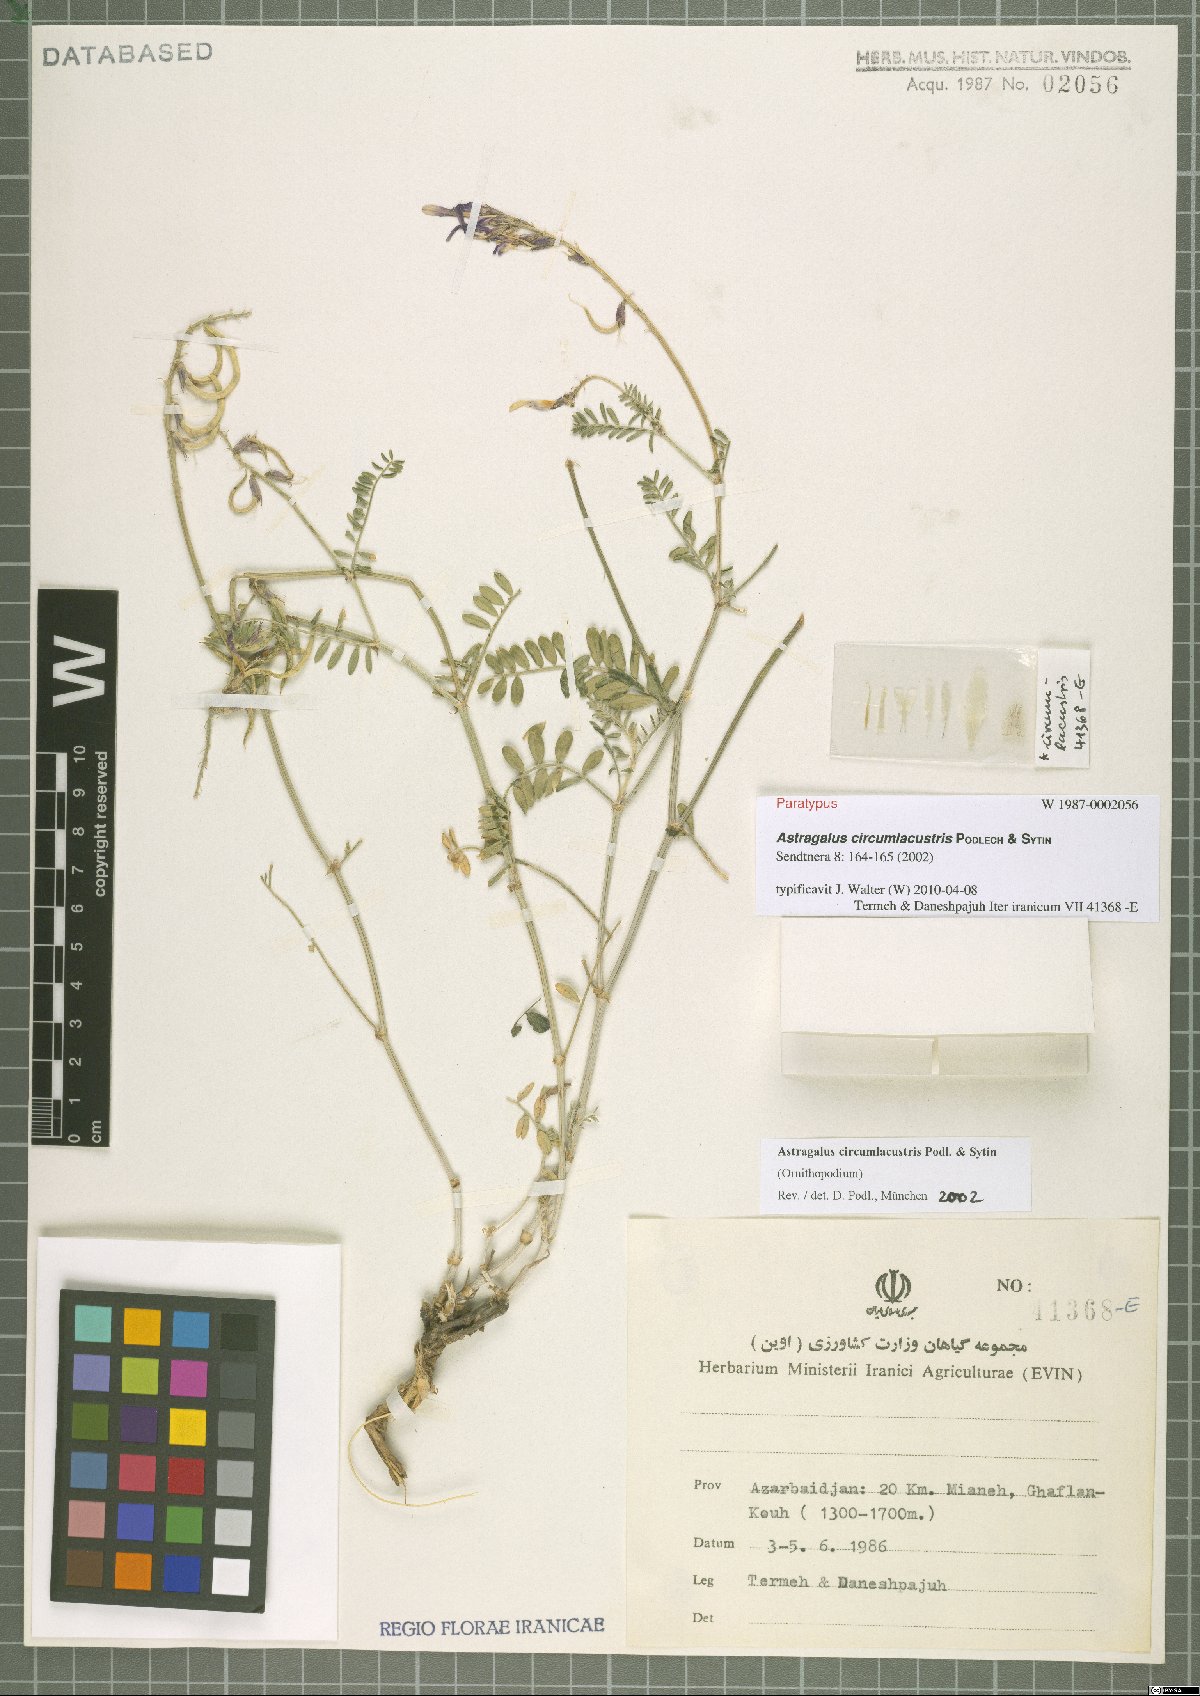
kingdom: Plantae
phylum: Tracheophyta
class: Magnoliopsida
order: Fabales
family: Fabaceae
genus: Astragalus
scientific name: Astragalus circumlacustris
